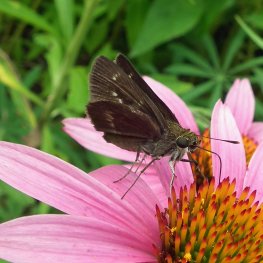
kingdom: Animalia
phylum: Arthropoda
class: Insecta
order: Lepidoptera
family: Hesperiidae
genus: Polites
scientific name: Polites egeremet
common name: Northern Broken-Dash
